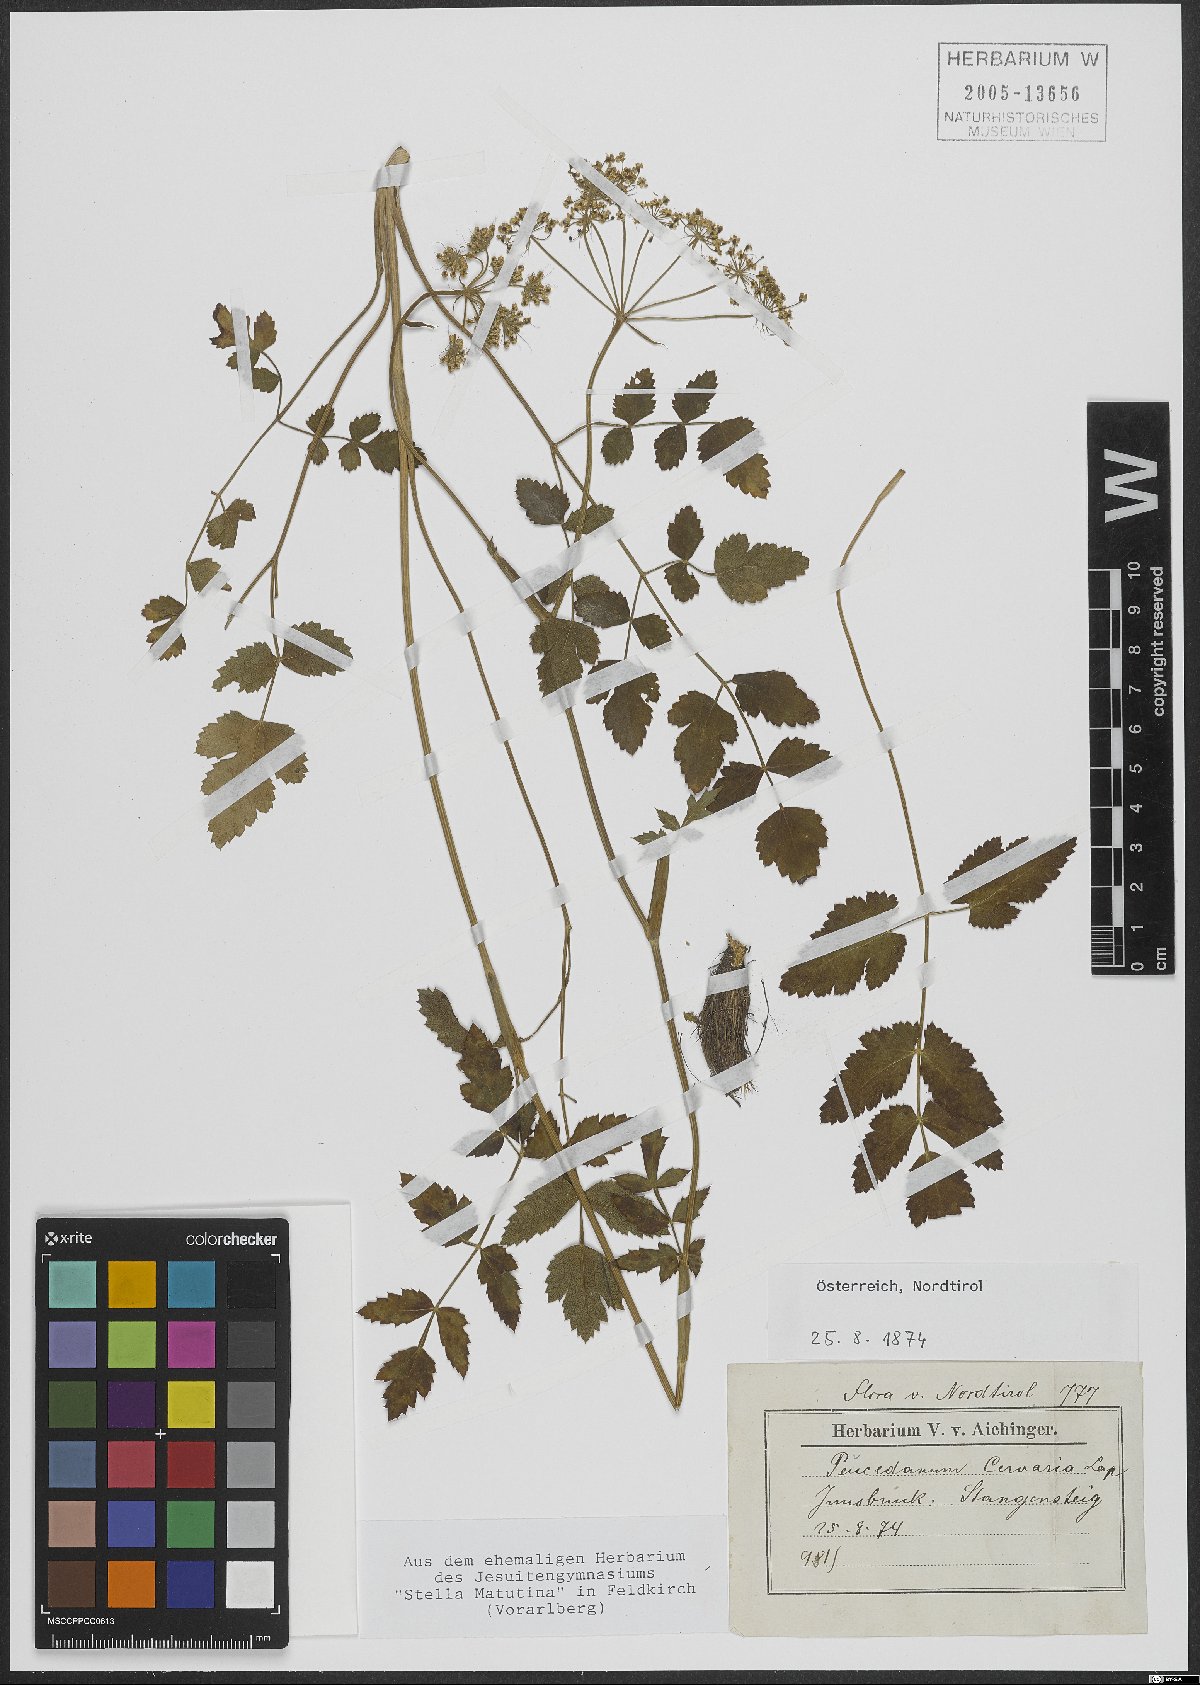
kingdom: Plantae
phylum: Tracheophyta
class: Magnoliopsida
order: Apiales
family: Apiaceae
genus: Cervaria
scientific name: Cervaria rivini
